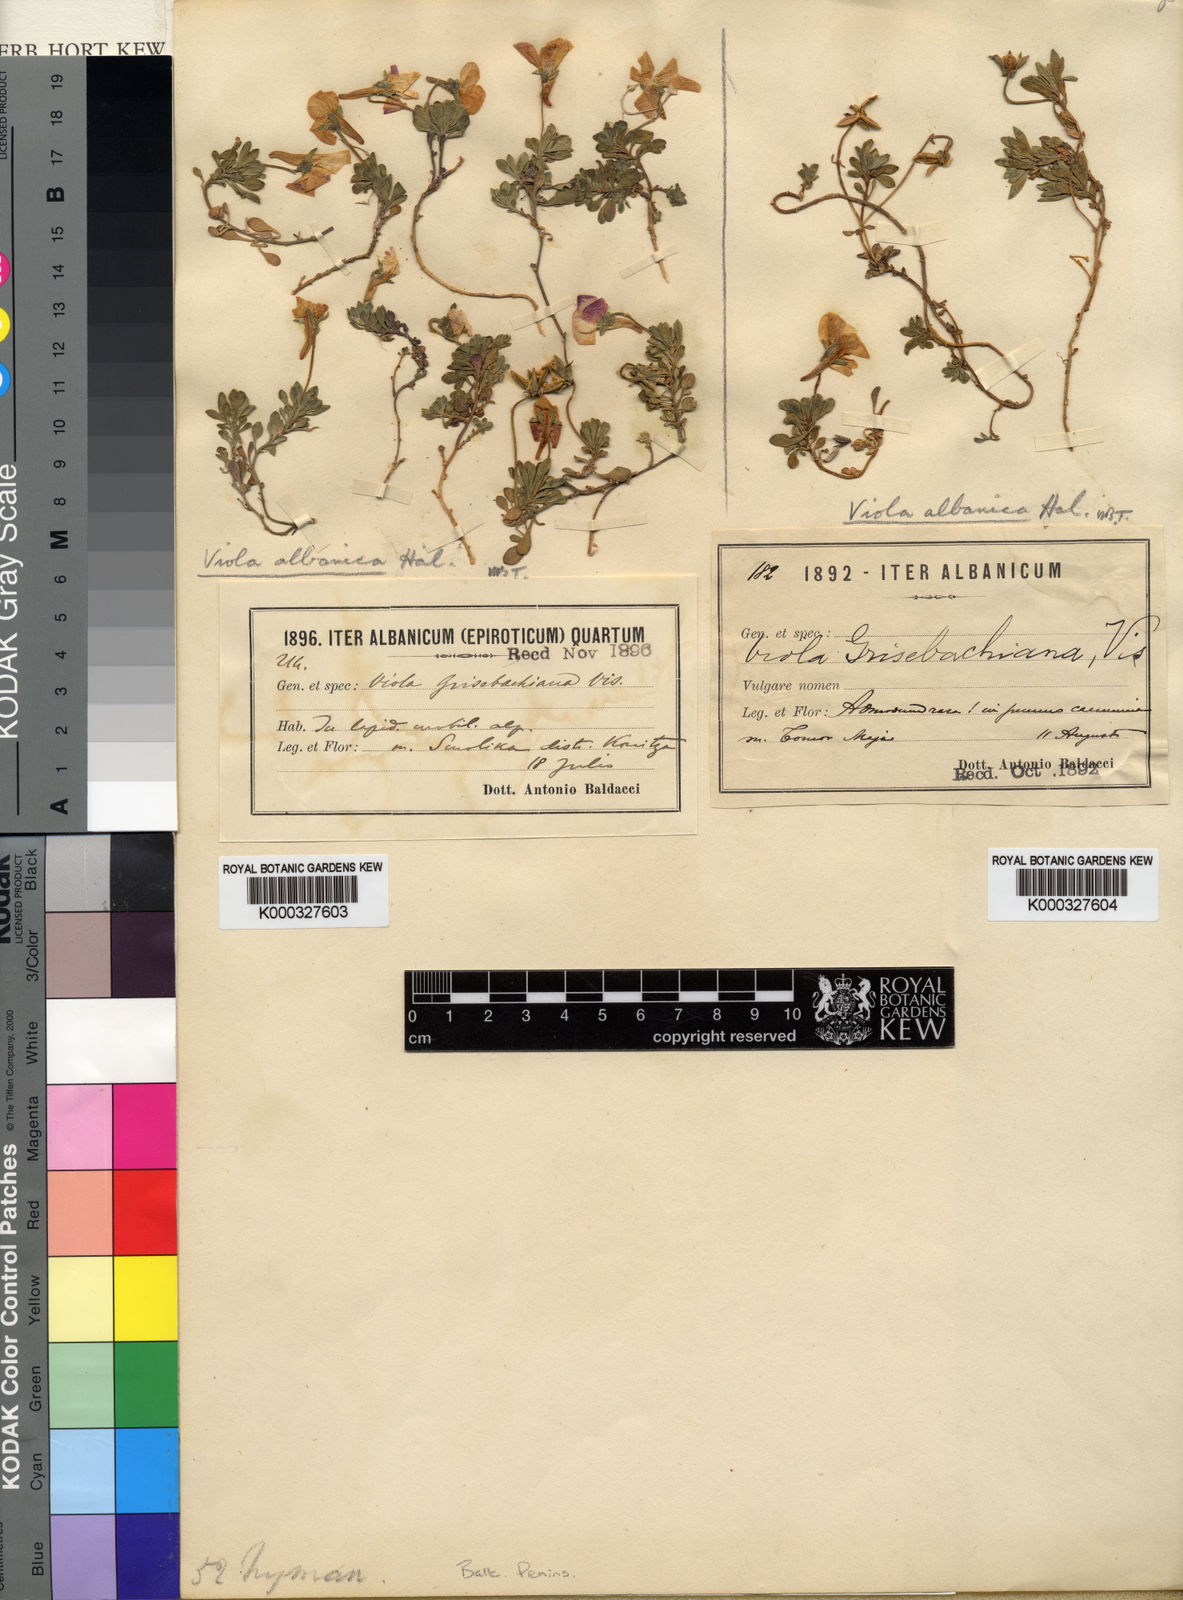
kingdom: Plantae
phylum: Tracheophyta
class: Magnoliopsida
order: Malpighiales
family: Violaceae
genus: Viola
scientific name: Viola magellensis
